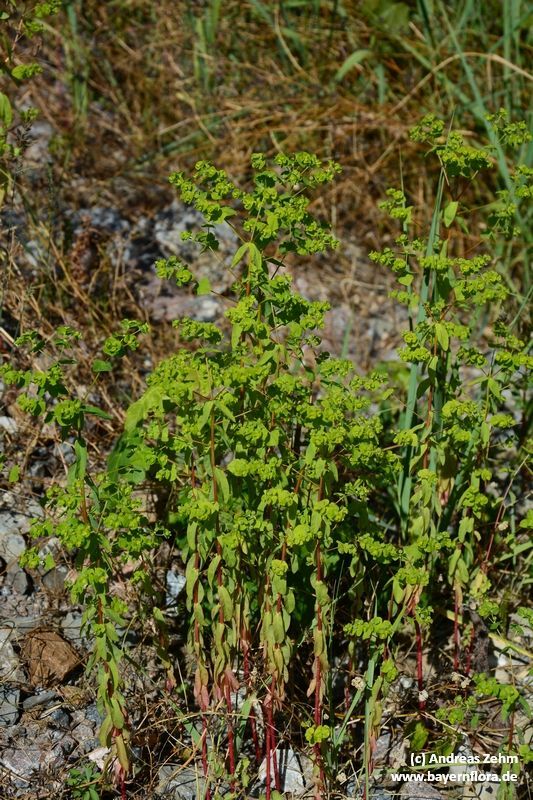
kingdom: Plantae
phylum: Tracheophyta
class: Magnoliopsida
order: Malpighiales
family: Euphorbiaceae
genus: Euphorbia
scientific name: Euphorbia stricta
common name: Upright spurge
